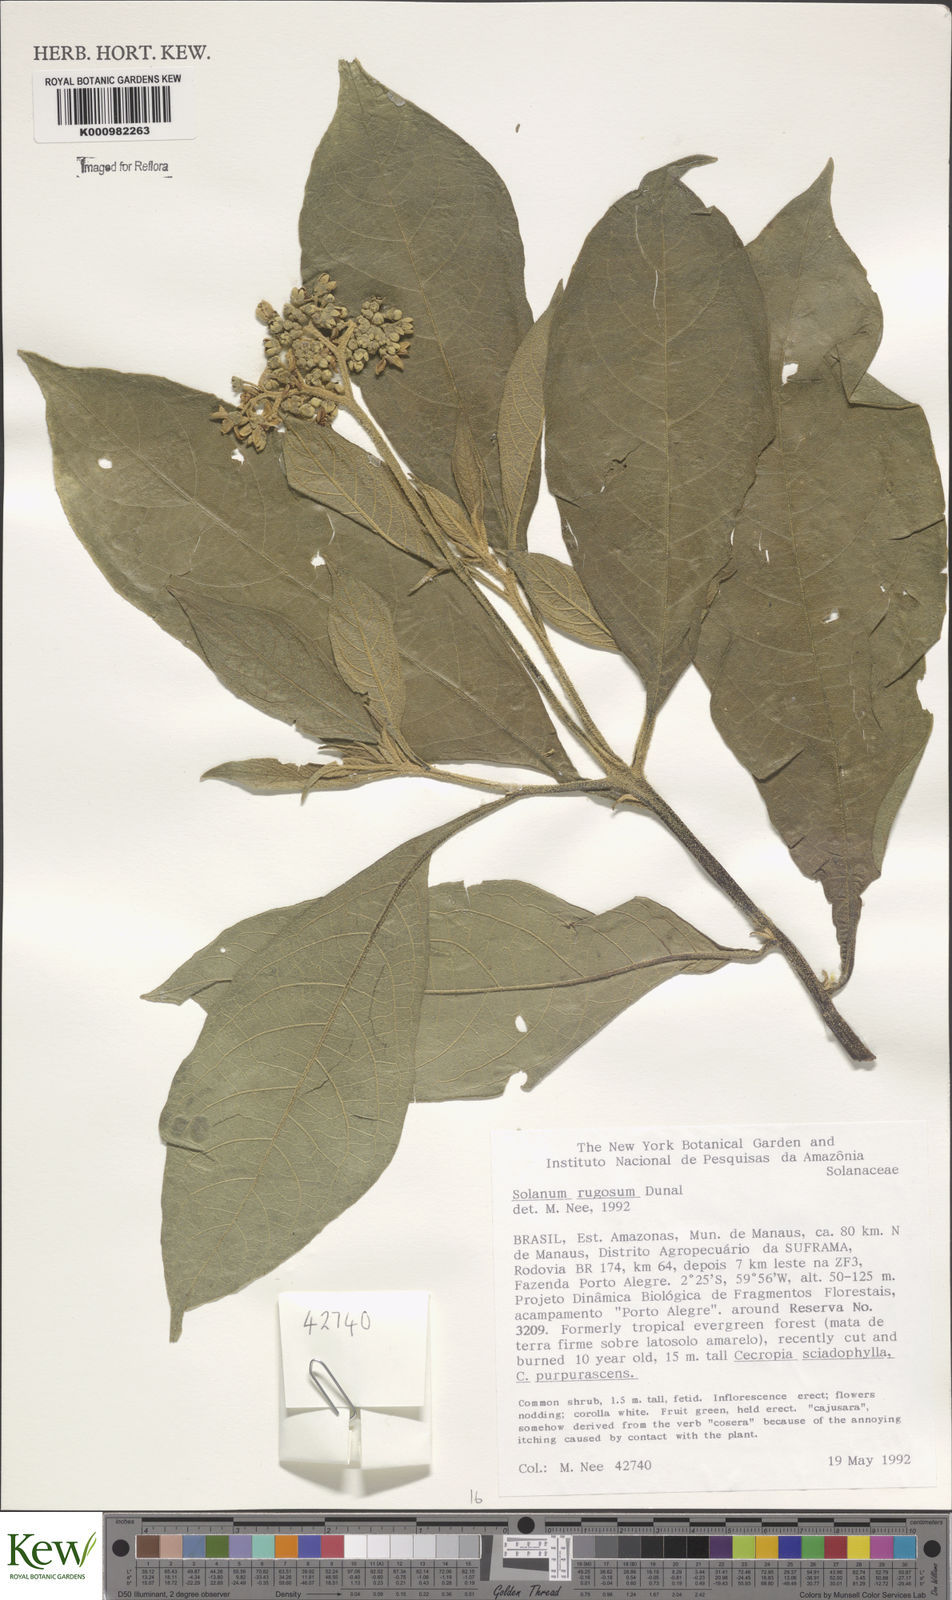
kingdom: Plantae
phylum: Tracheophyta
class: Magnoliopsida
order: Solanales
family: Solanaceae
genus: Solanum
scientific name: Solanum rugosum
